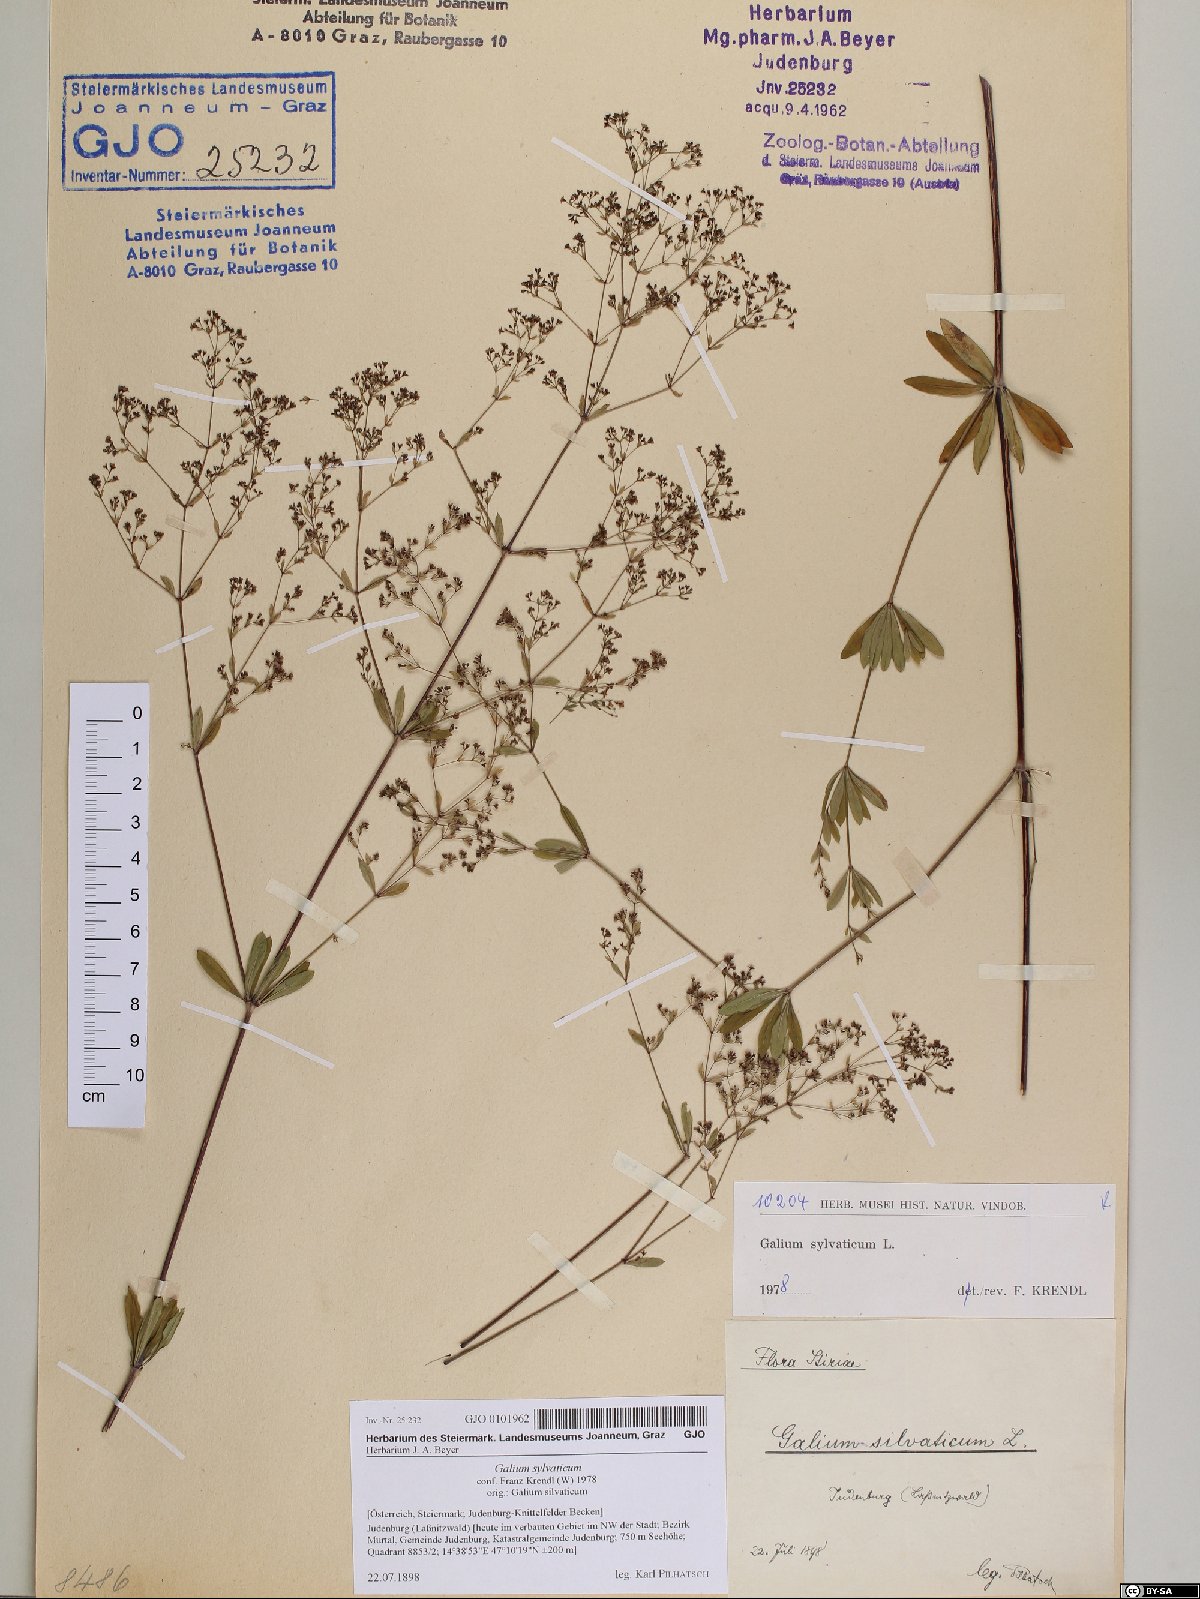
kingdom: Plantae
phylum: Tracheophyta
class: Magnoliopsida
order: Gentianales
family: Rubiaceae
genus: Galium
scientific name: Galium sylvaticum
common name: Wood bedstraw
